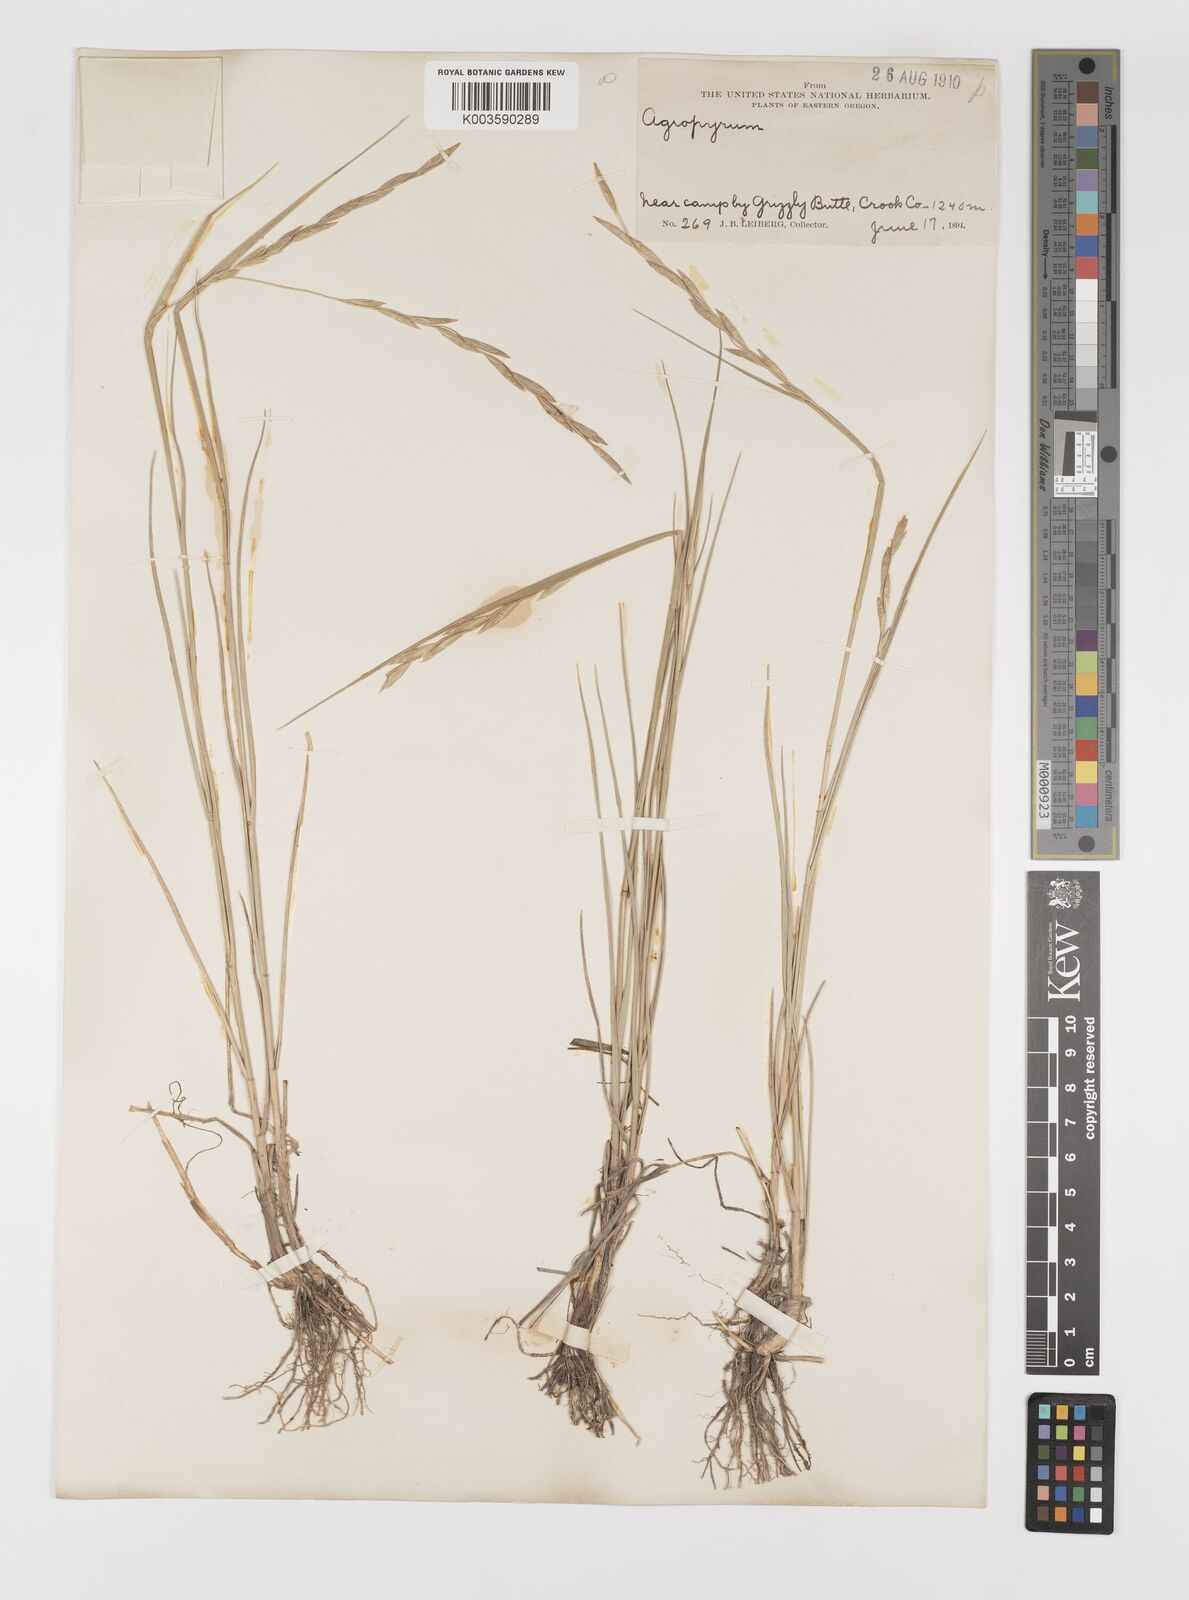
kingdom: Plantae
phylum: Tracheophyta
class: Liliopsida
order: Poales
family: Poaceae
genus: Elymus
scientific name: Elymus
